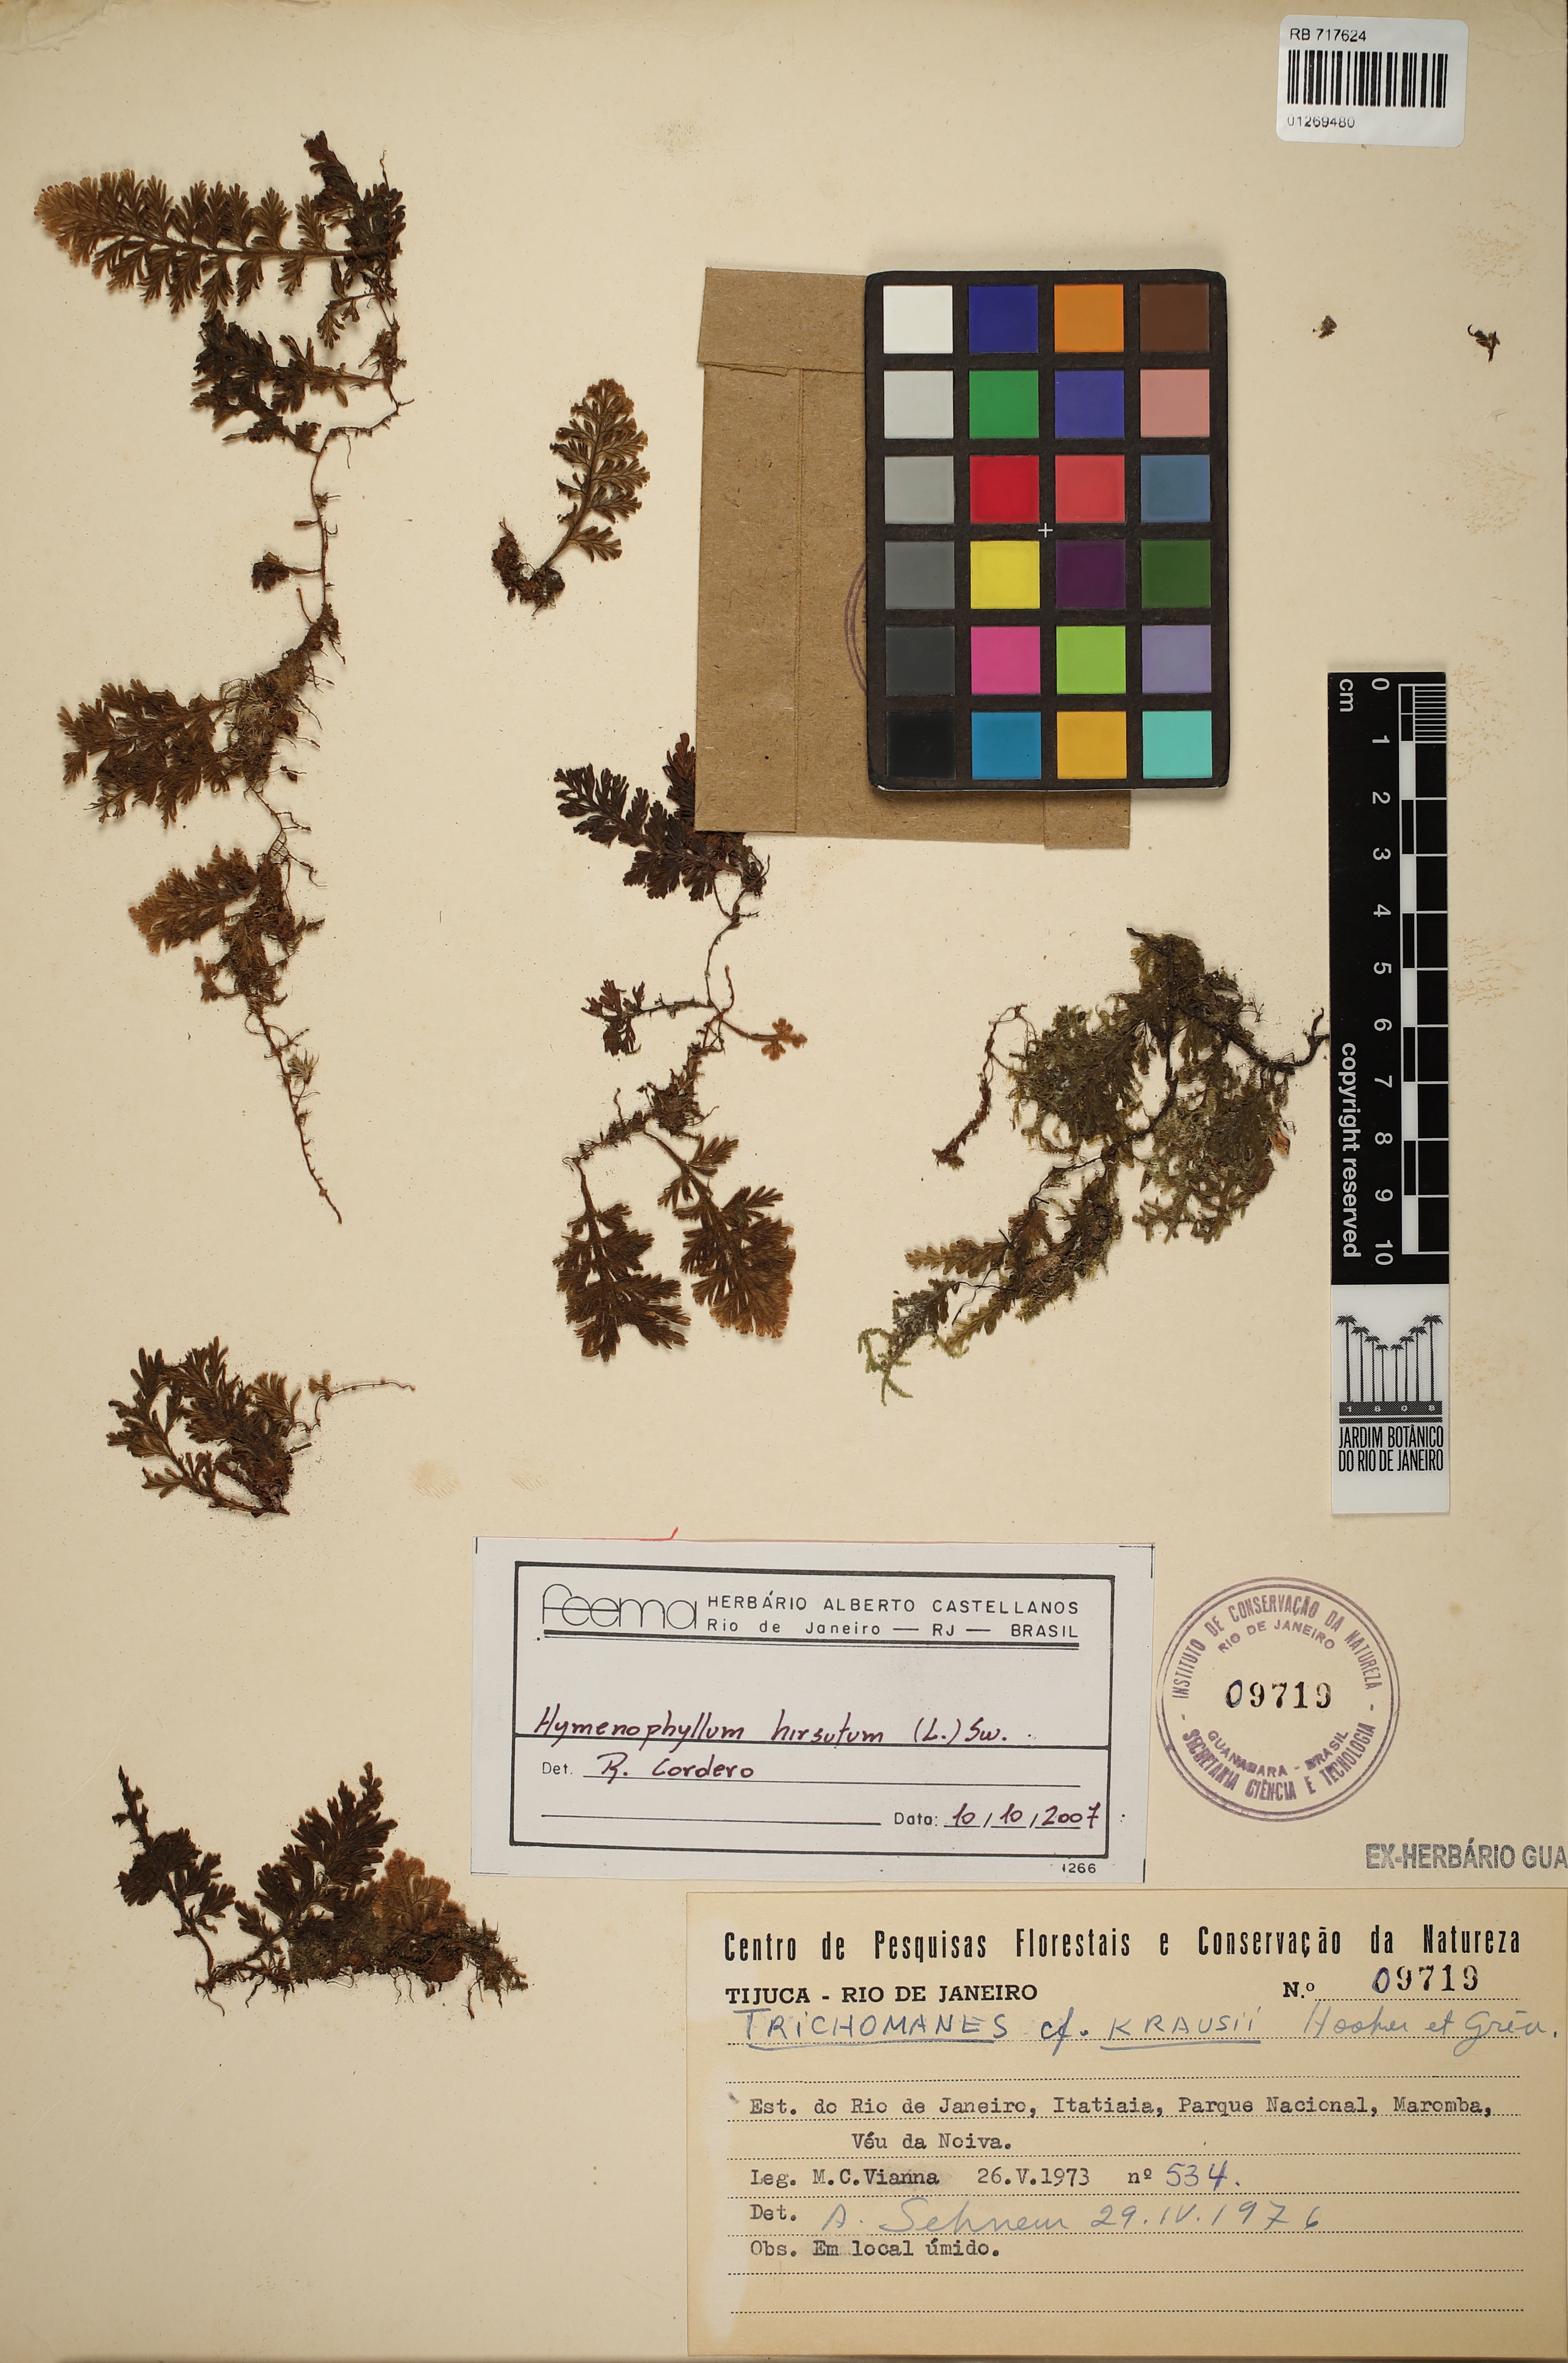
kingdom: Plantae
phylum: Tracheophyta
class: Polypodiopsida
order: Hymenophyllales
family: Hymenophyllaceae
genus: Hymenophyllum
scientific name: Hymenophyllum hirsutum
